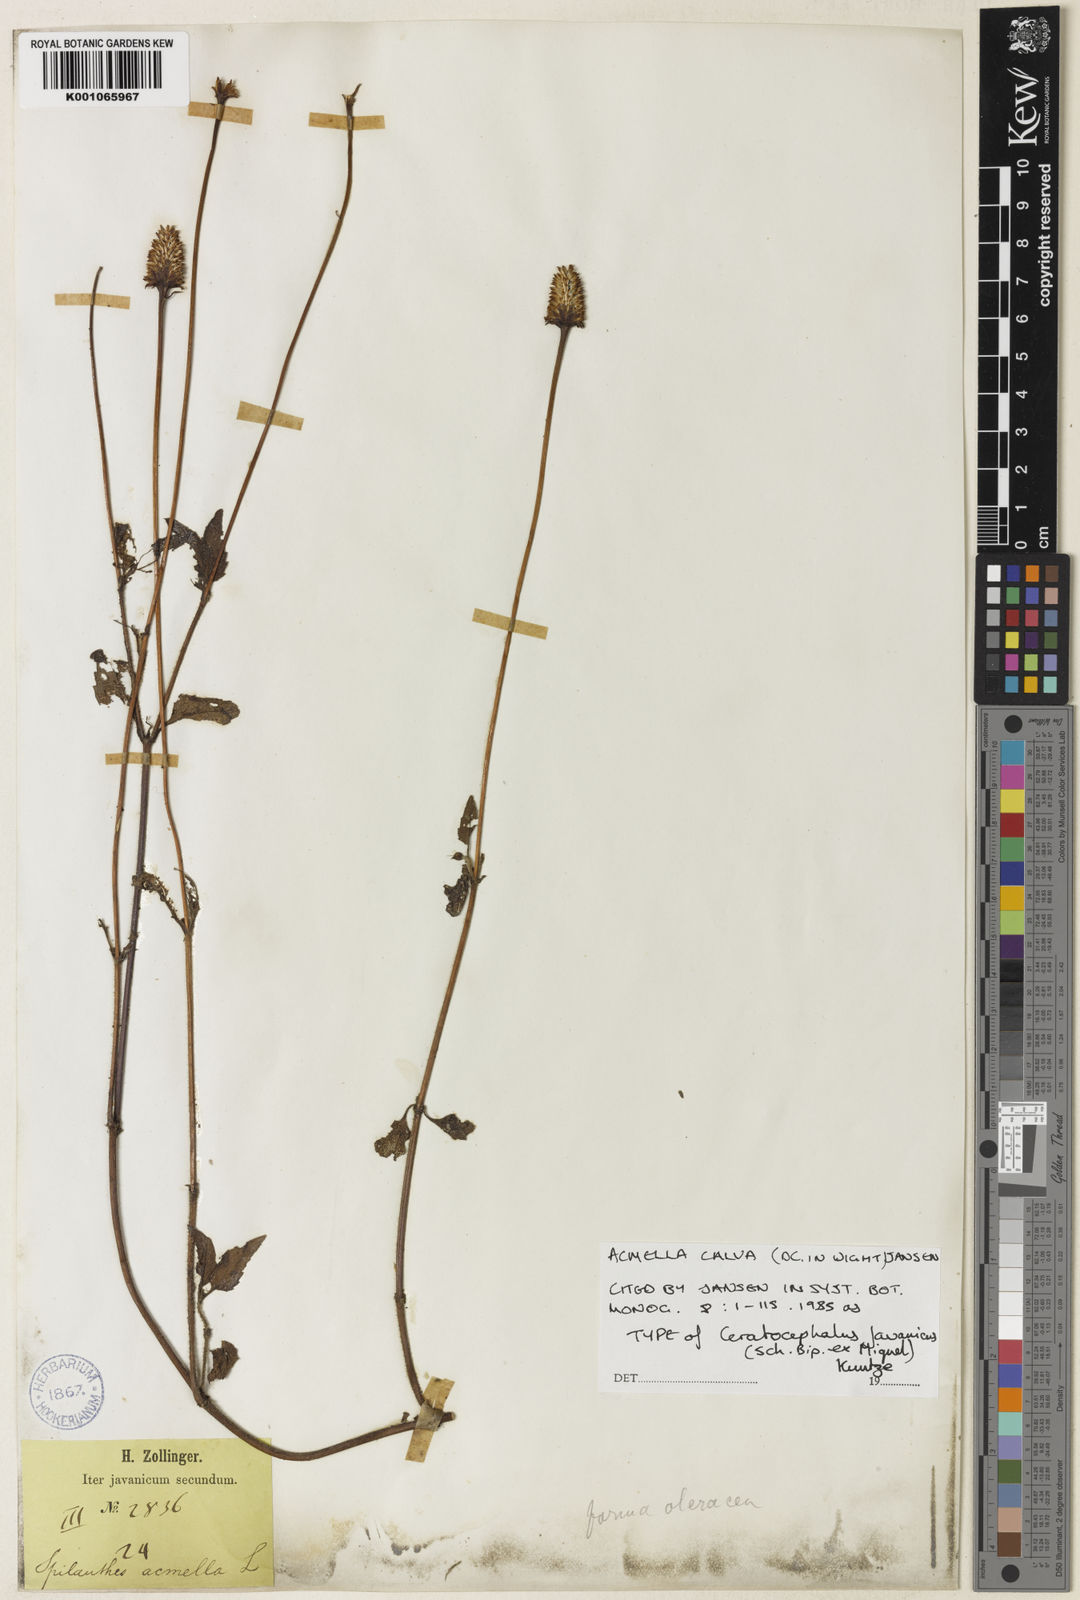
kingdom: Plantae
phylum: Tracheophyta
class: Magnoliopsida
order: Asterales
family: Asteraceae
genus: Acmella
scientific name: Acmella calva
